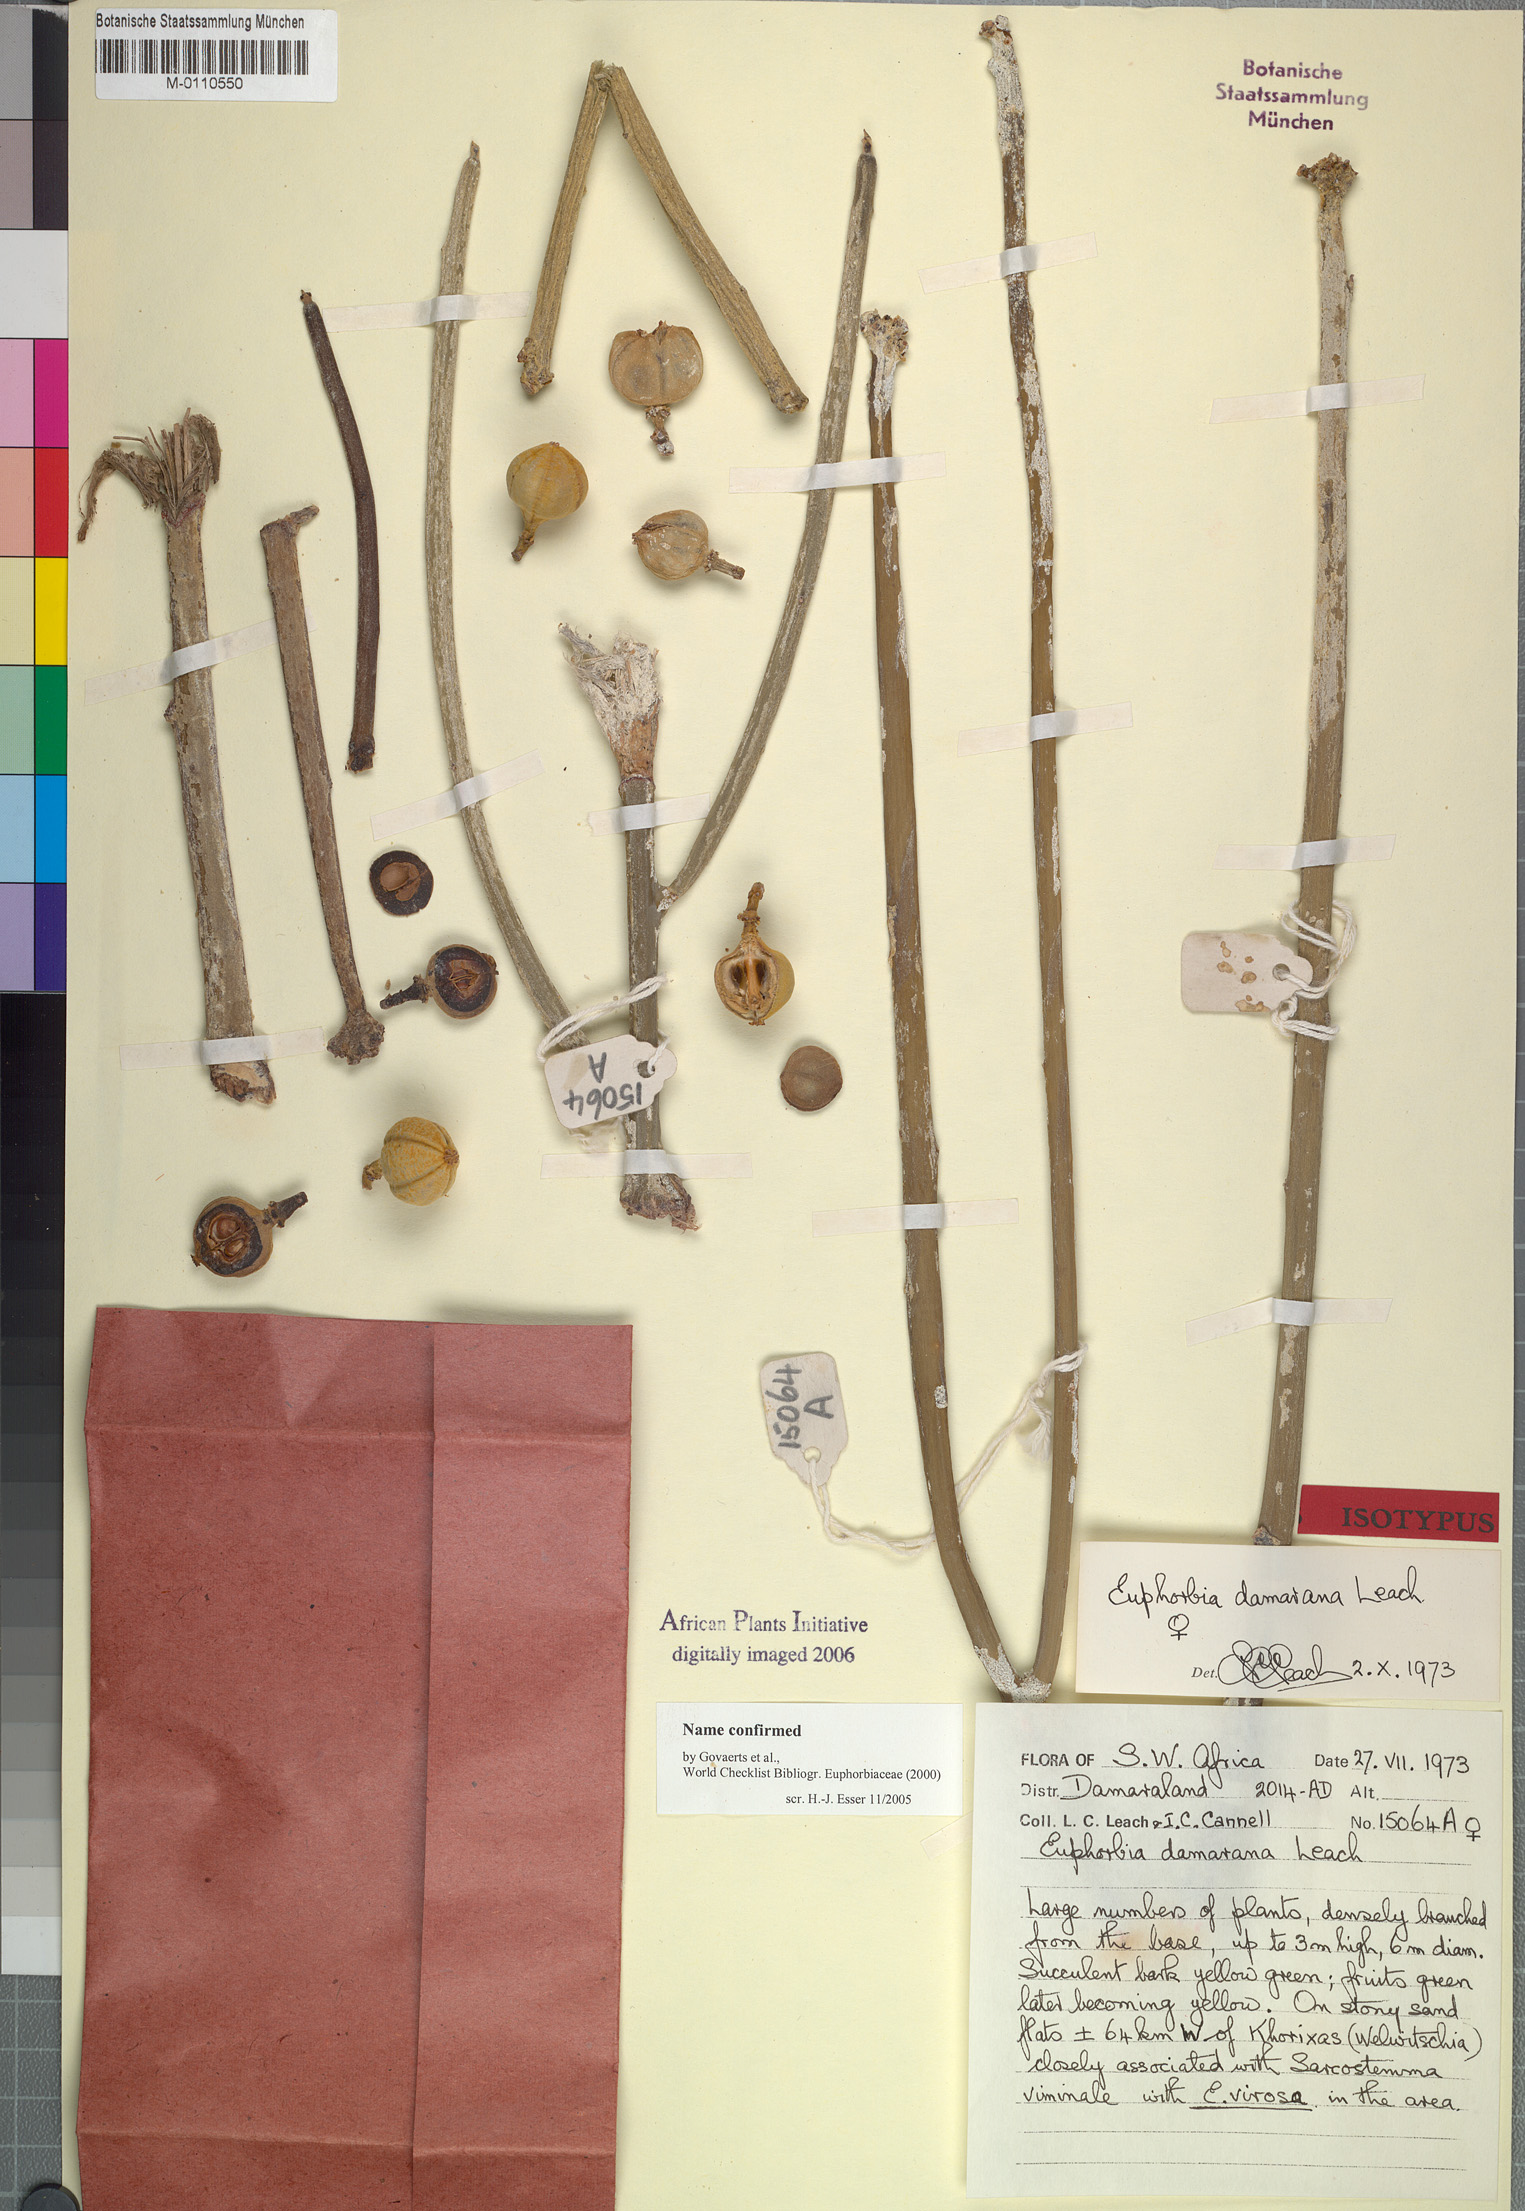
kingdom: Plantae
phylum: Tracheophyta
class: Magnoliopsida
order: Malpighiales
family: Euphorbiaceae
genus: Euphorbia
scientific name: Euphorbia damarana
